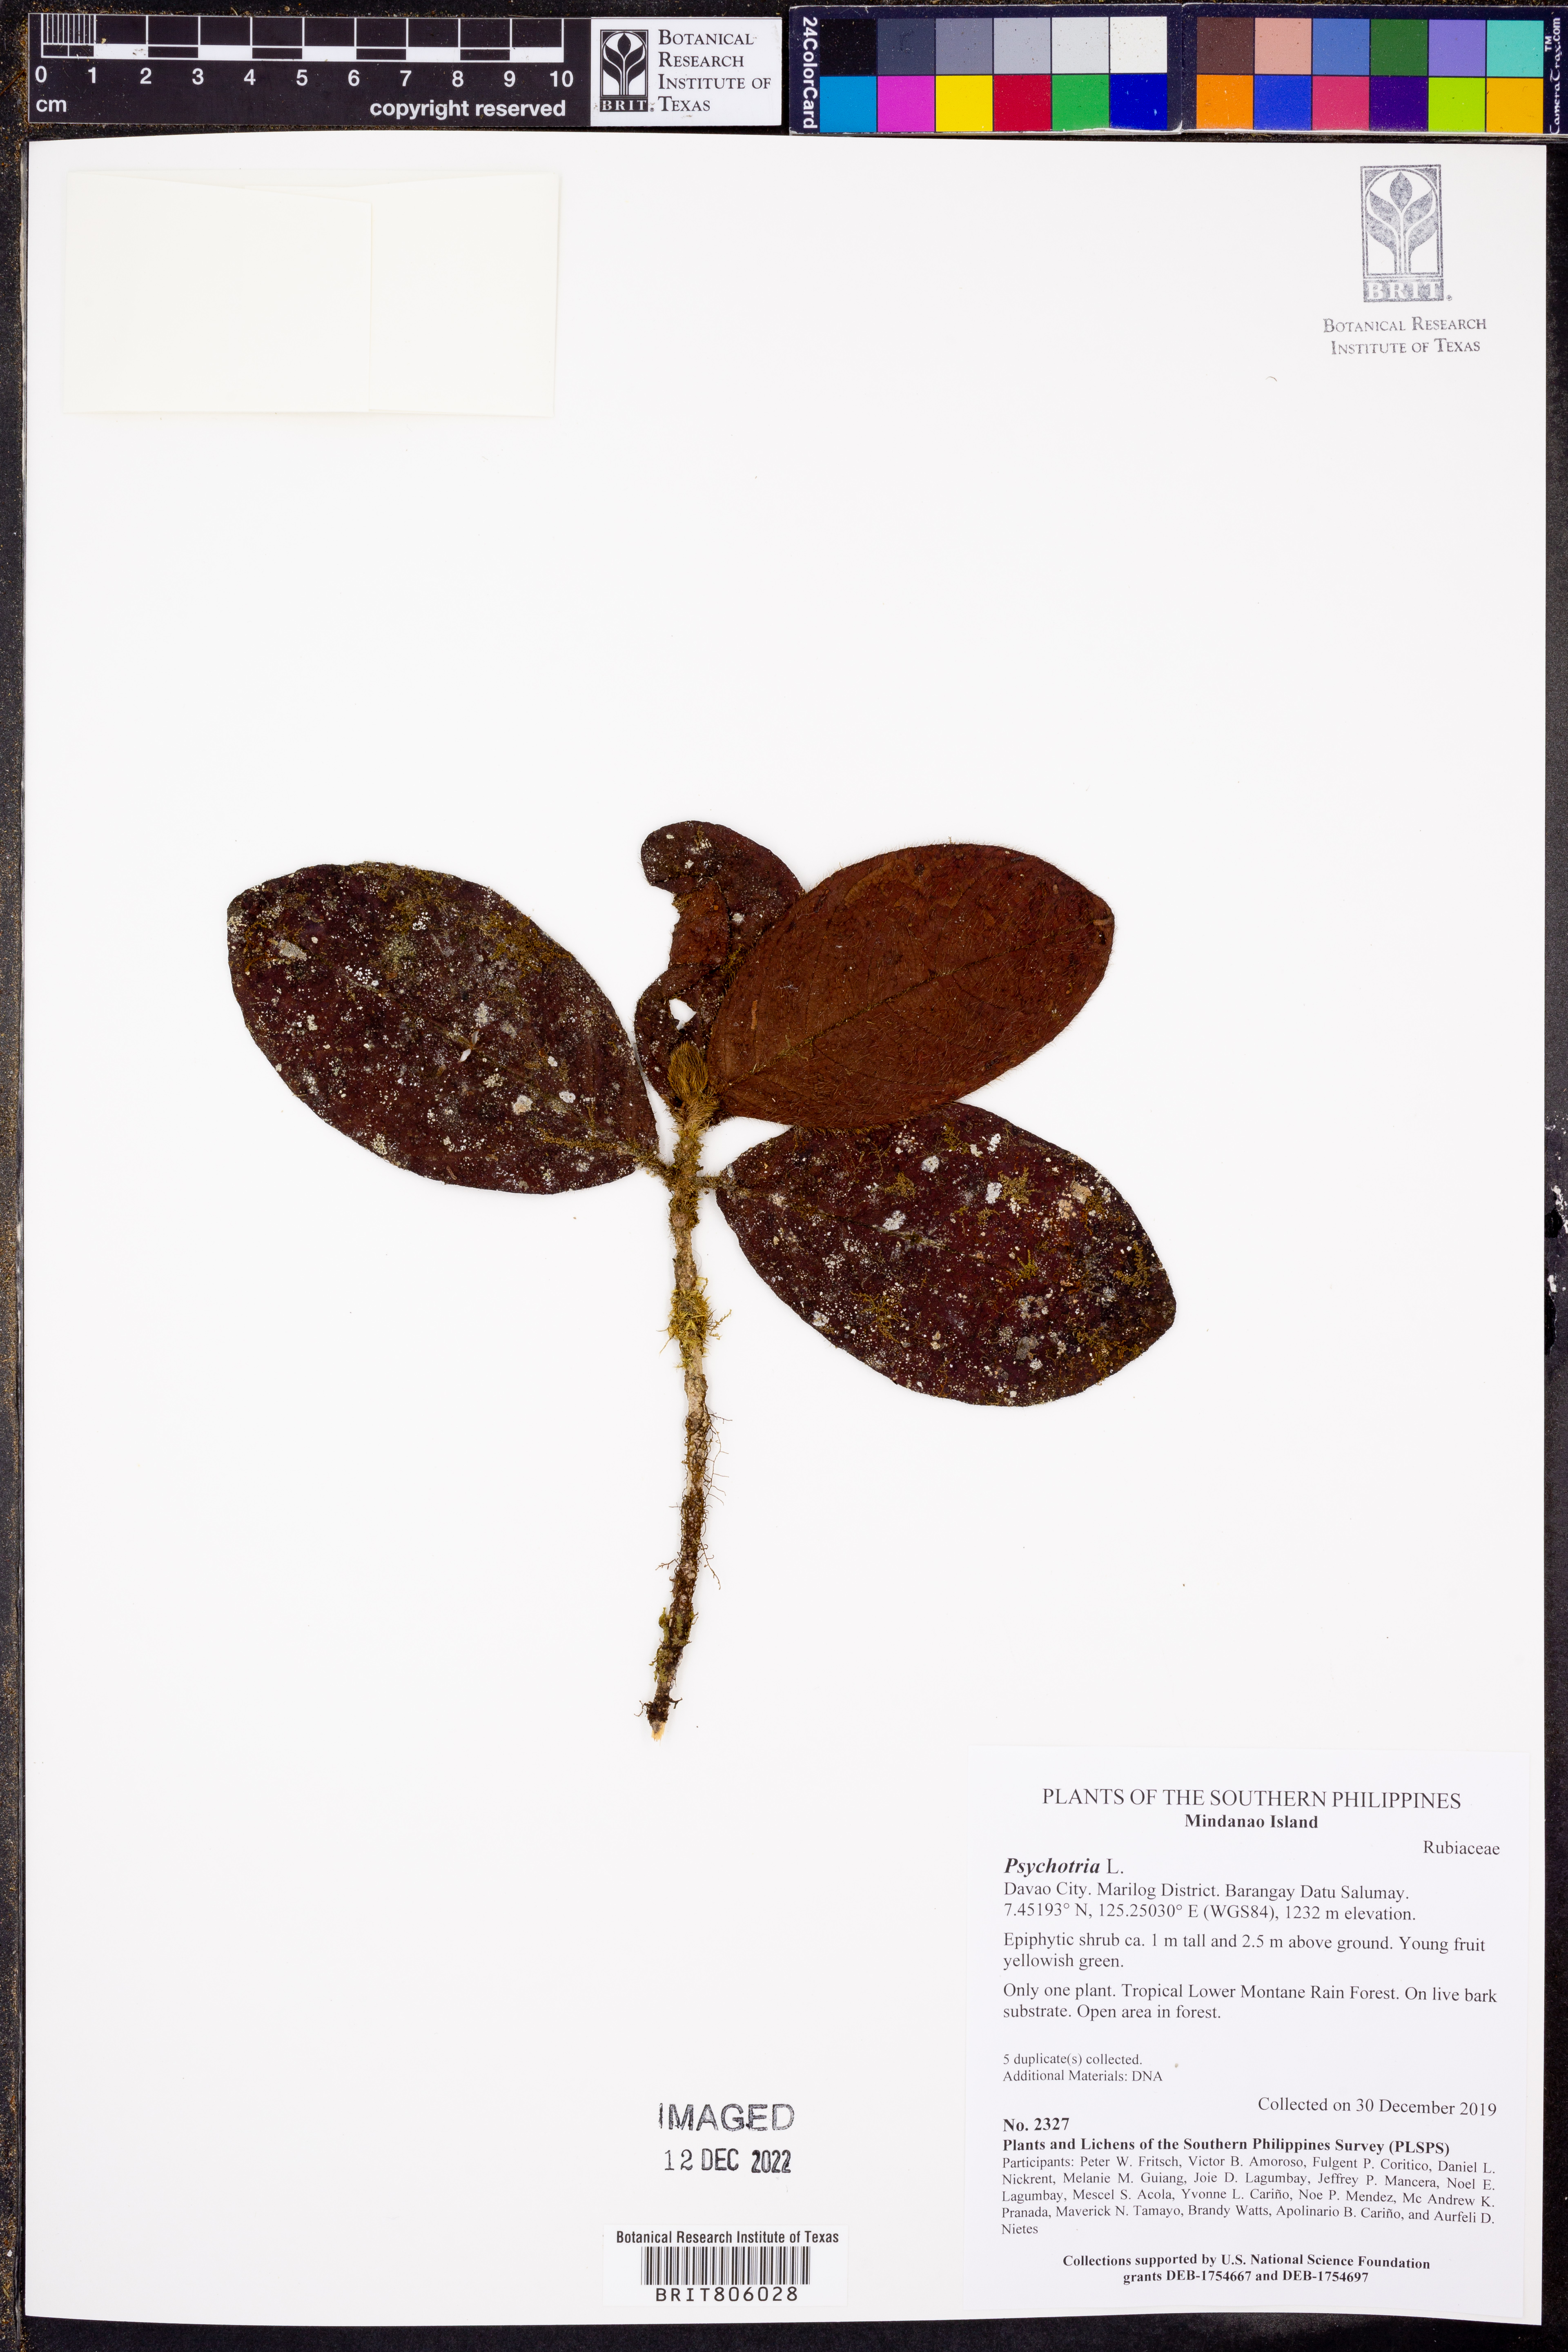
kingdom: Plantae
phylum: Tracheophyta
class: Magnoliopsida
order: Gentianales
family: Rubiaceae
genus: Psychotria
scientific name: Psychotria
